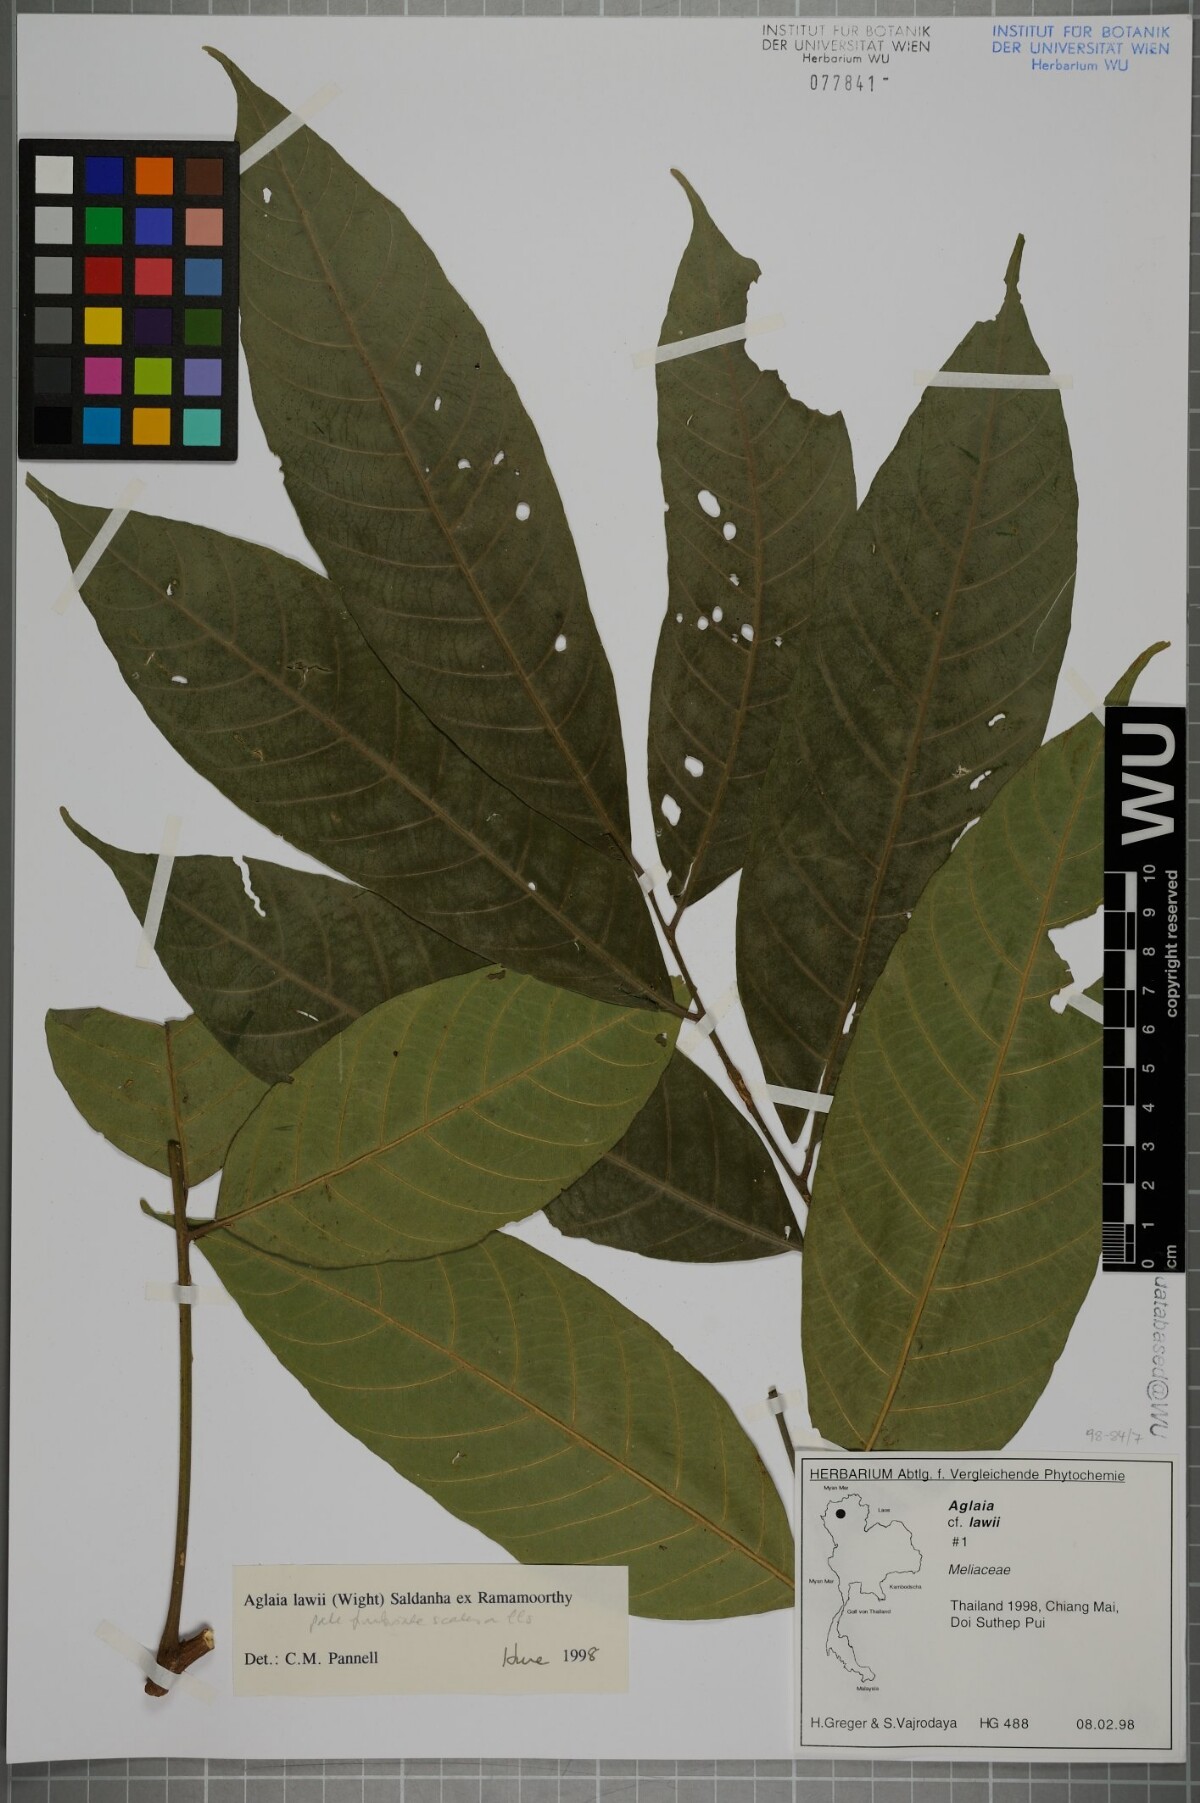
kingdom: Plantae
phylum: Tracheophyta
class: Magnoliopsida
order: Sapindales
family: Meliaceae
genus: Aglaia
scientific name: Aglaia lawii
